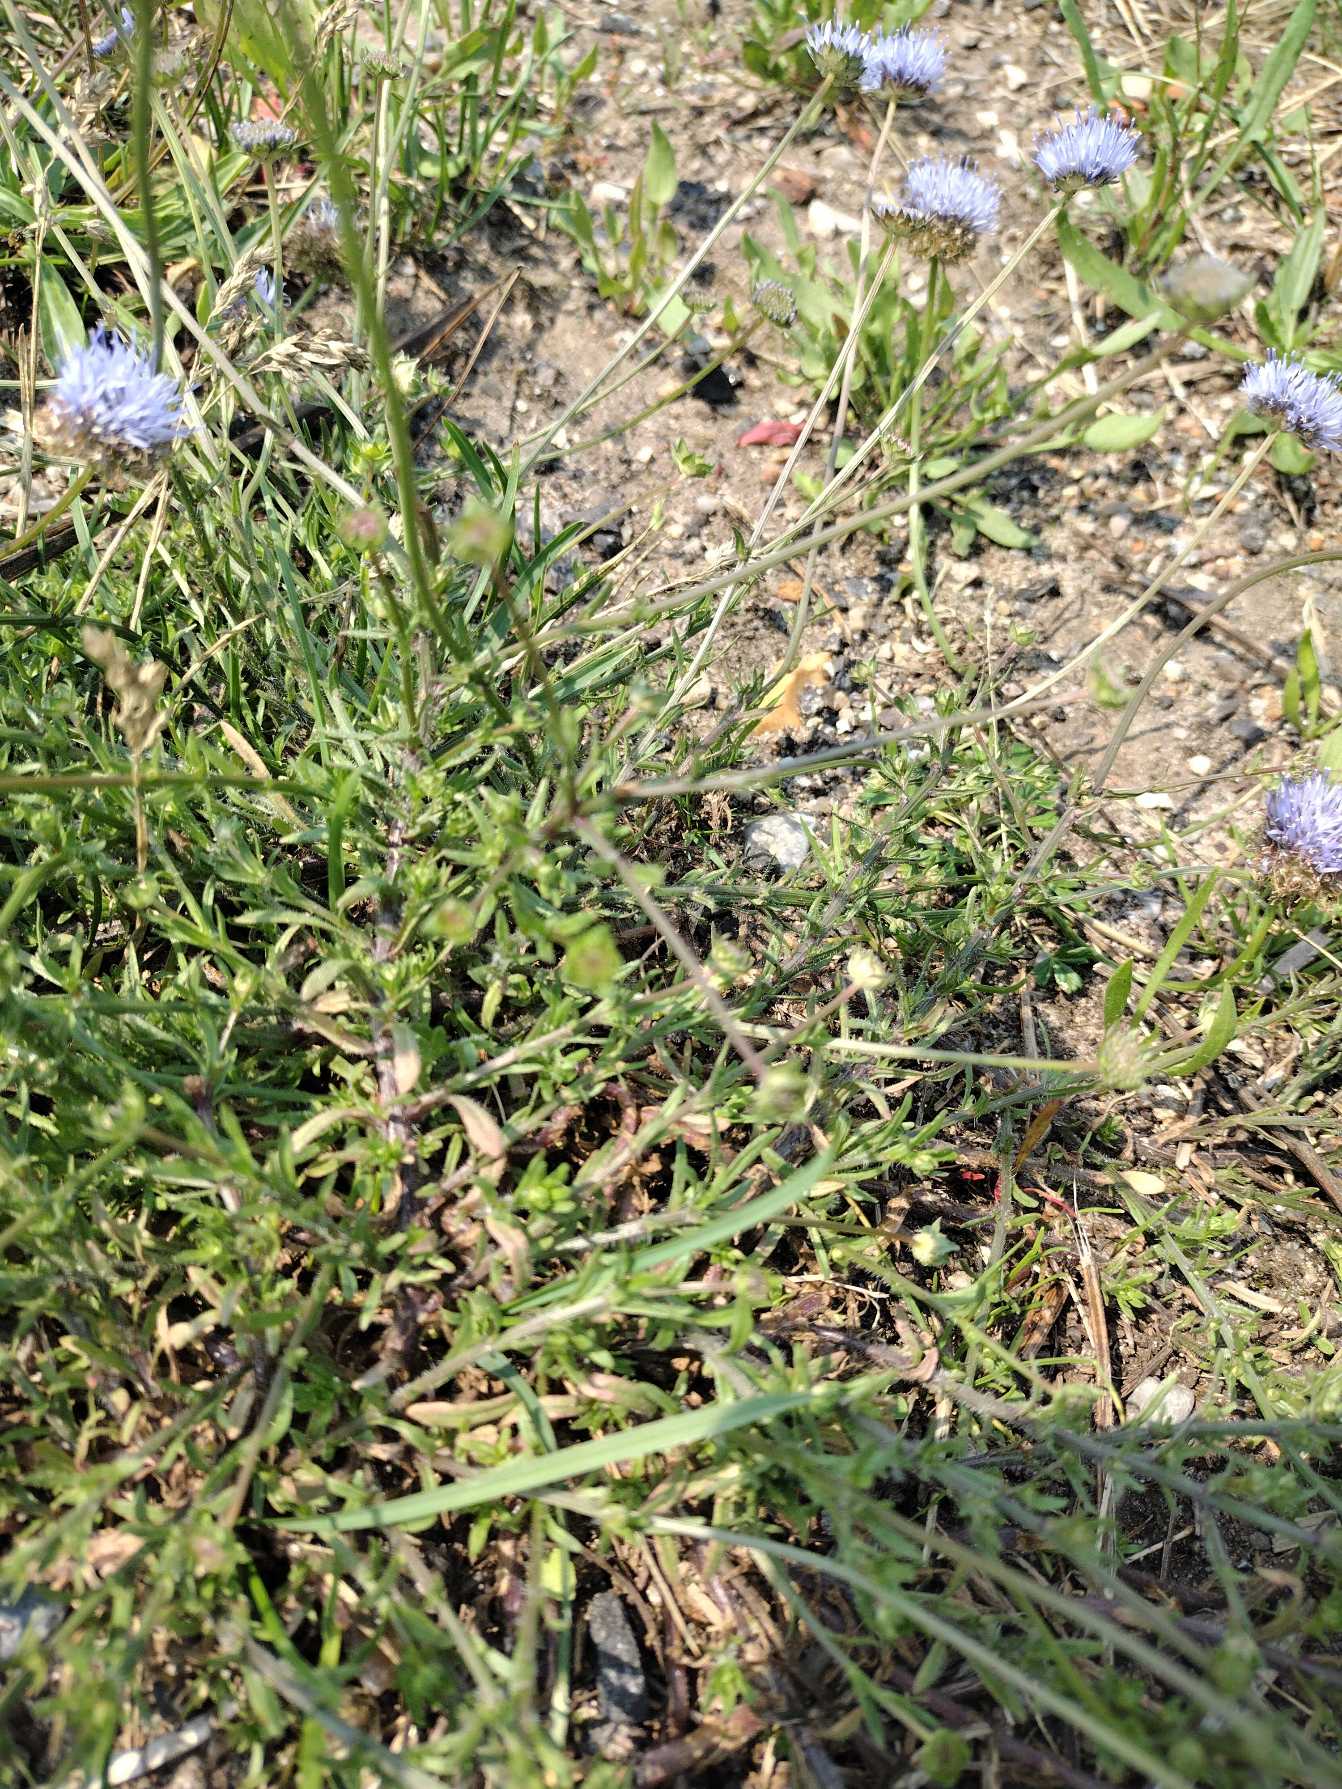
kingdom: Plantae
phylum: Tracheophyta
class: Magnoliopsida
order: Asterales
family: Campanulaceae
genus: Jasione
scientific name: Jasione montana
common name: Blåmunke
